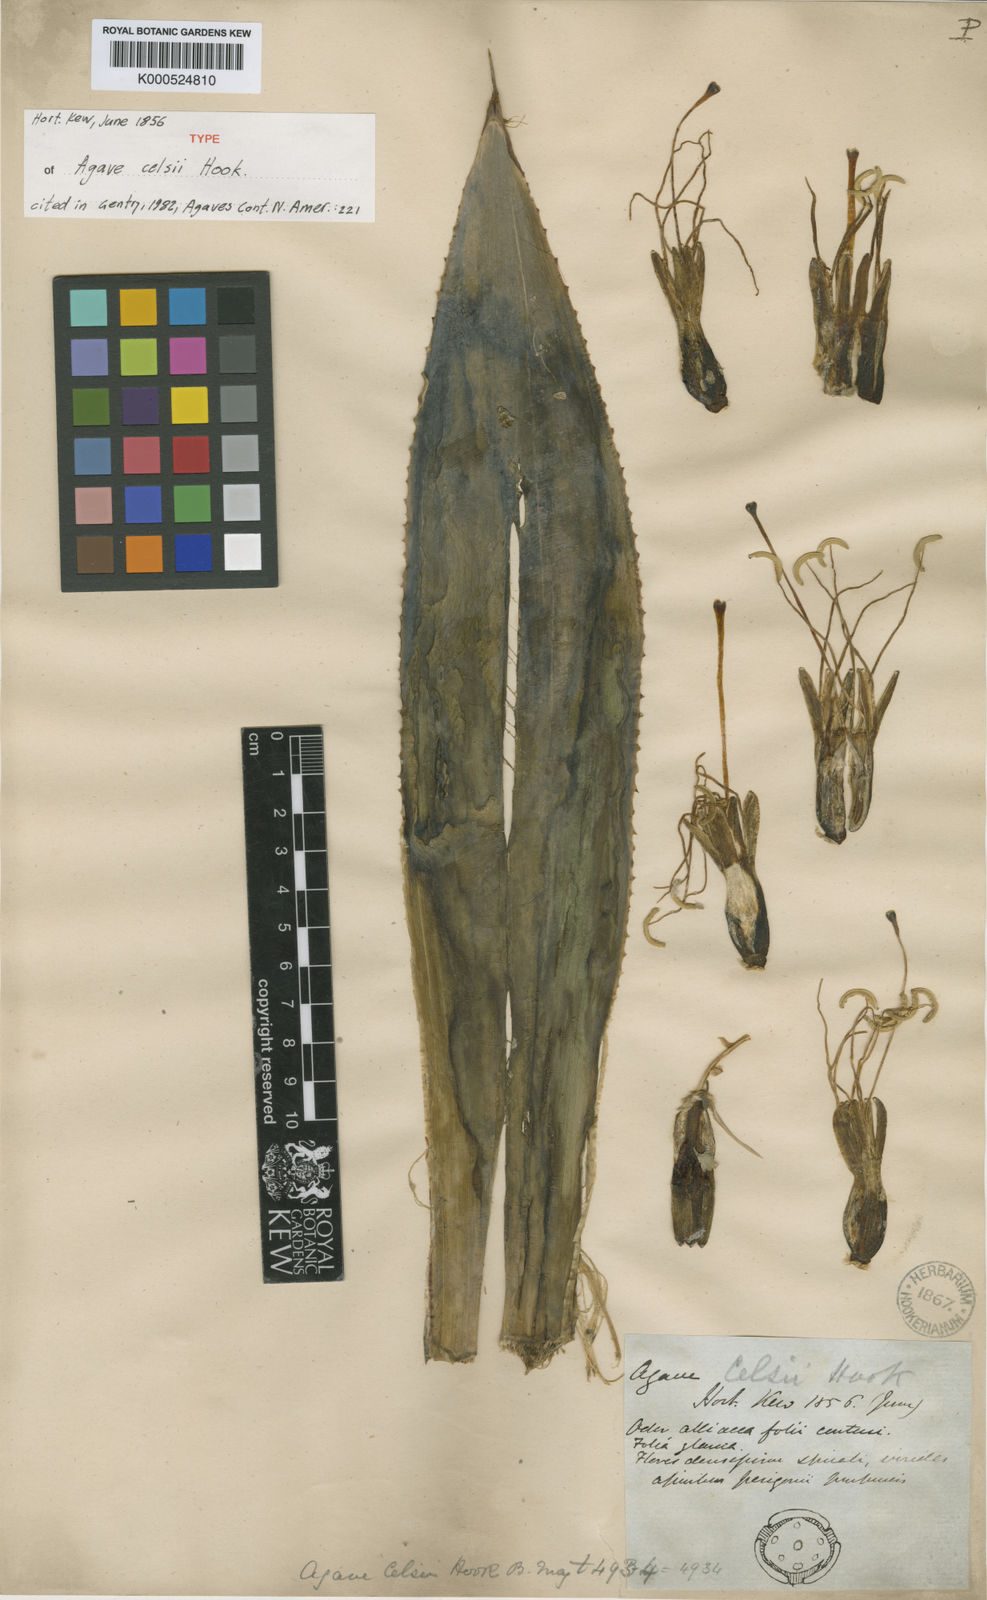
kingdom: Plantae
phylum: Tracheophyta
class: Liliopsida
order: Asparagales
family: Asparagaceae
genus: Agave
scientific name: Agave mitis
